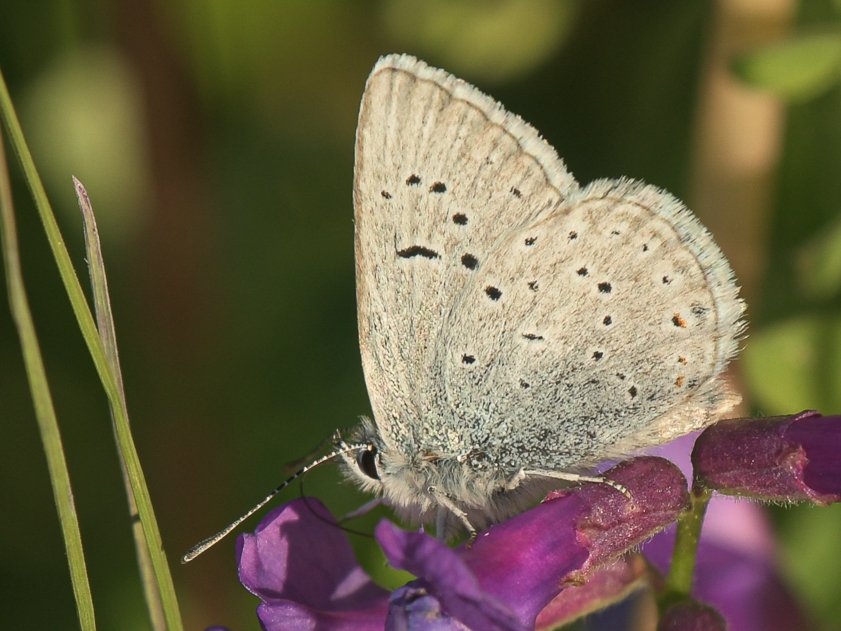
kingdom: Animalia
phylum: Arthropoda
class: Insecta
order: Lepidoptera
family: Lycaenidae
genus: Plebejus
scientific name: Plebejus saepiolus
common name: Greenish Blue
